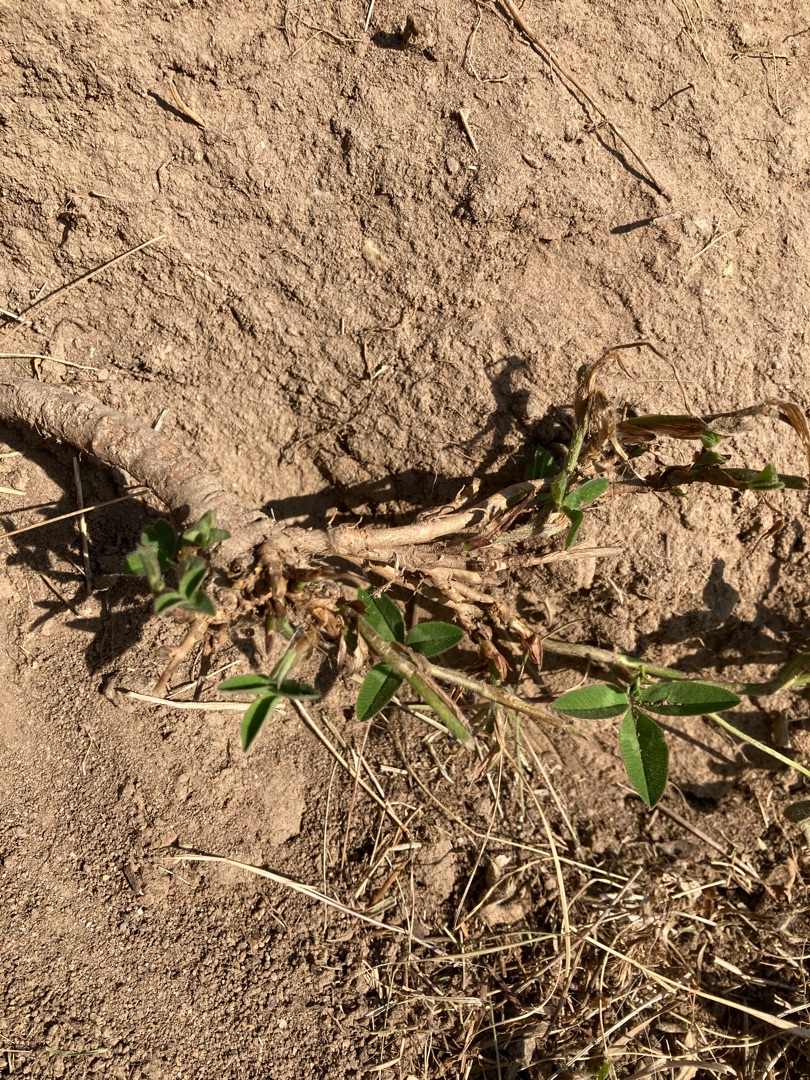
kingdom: Plantae
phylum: Tracheophyta
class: Magnoliopsida
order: Fabales
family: Fabaceae
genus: Trifolium
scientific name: Trifolium medium
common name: Bugtet kløver
